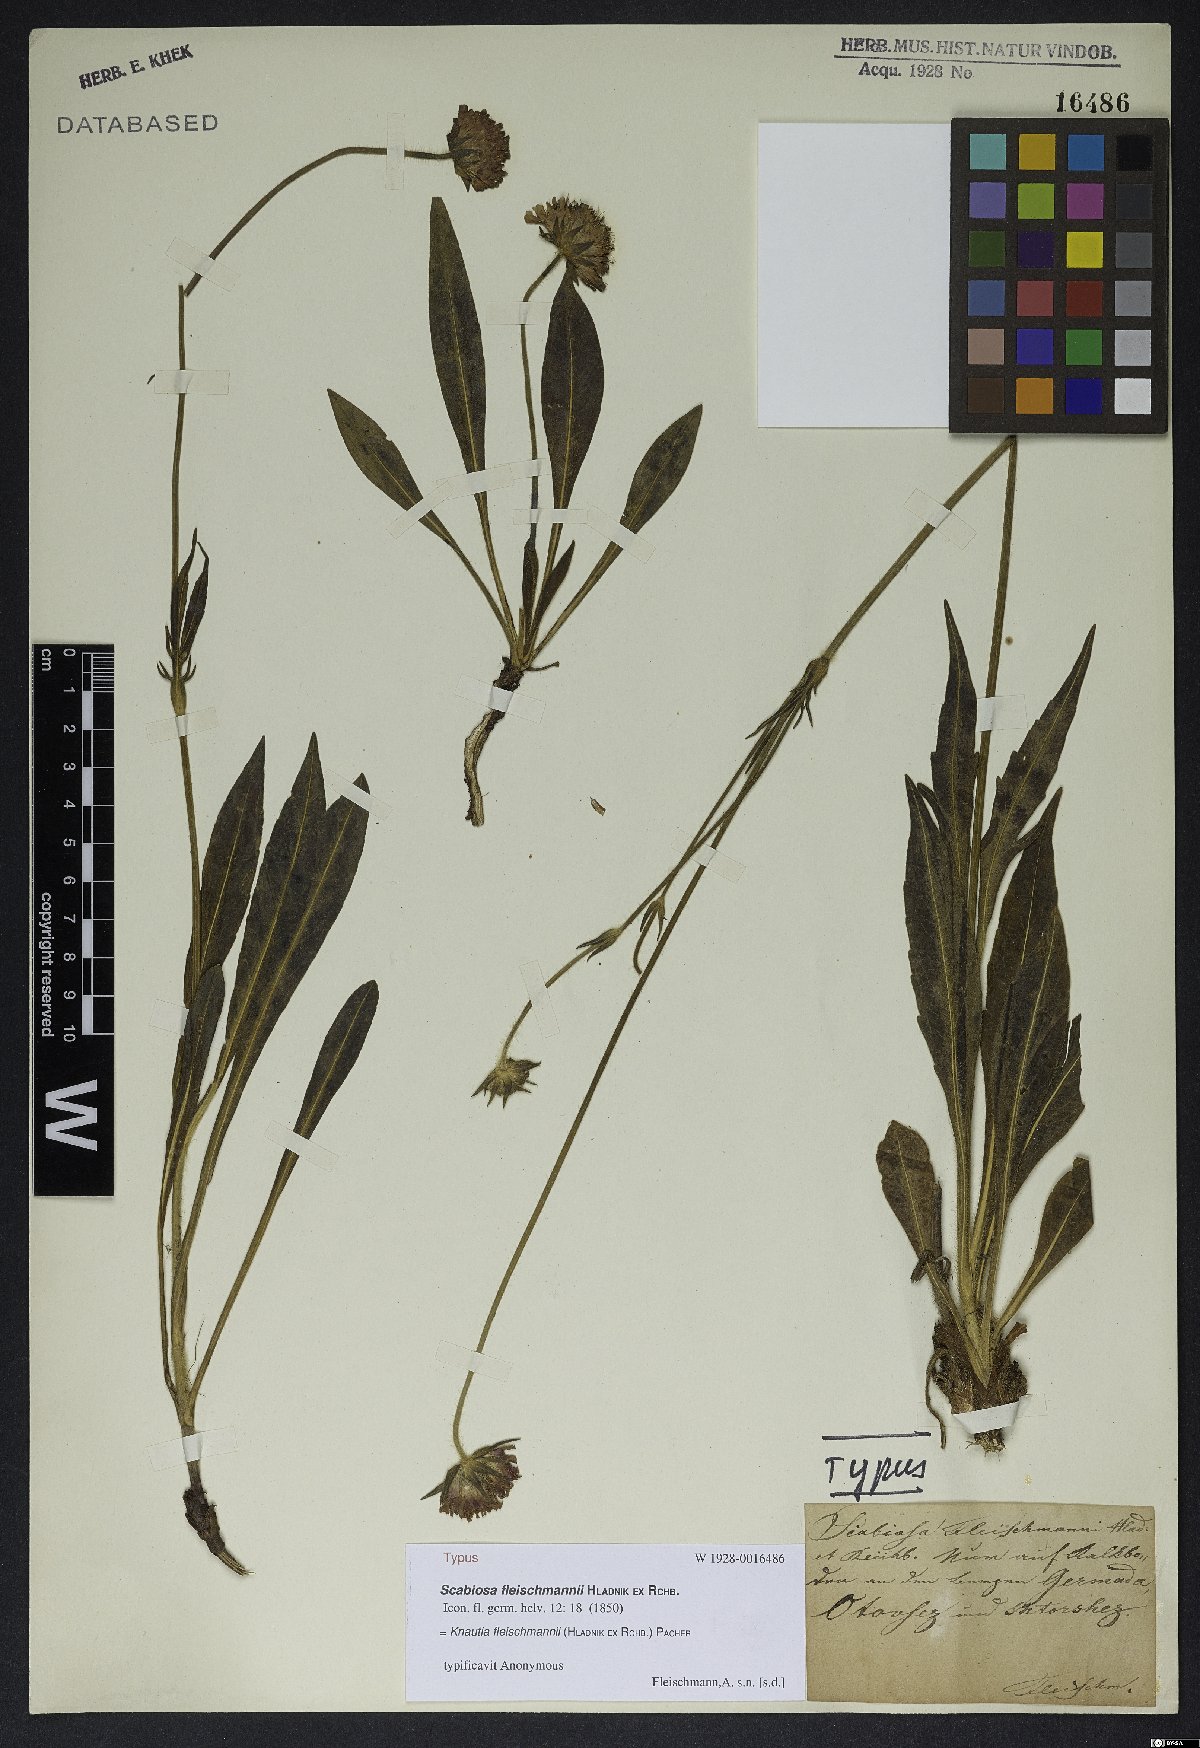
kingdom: Plantae
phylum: Tracheophyta
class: Magnoliopsida
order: Dipsacales
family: Caprifoliaceae
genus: Knautia
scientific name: Knautia fleischmannii
